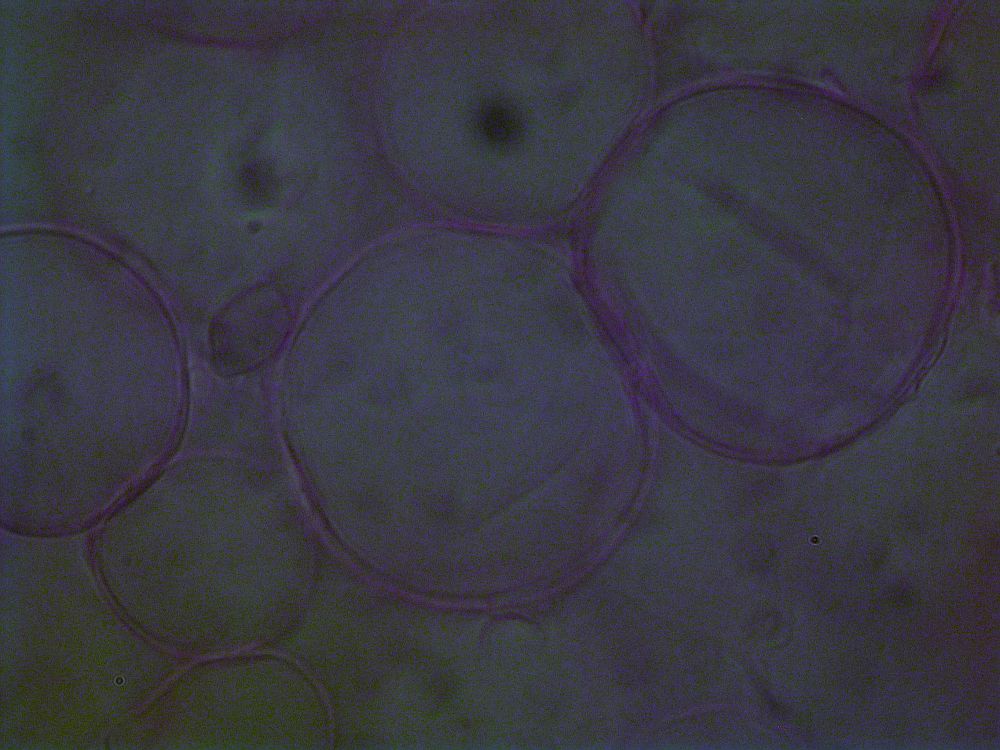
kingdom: Fungi
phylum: Basidiomycota
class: Agaricomycetes
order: Agaricales
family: Psathyrellaceae
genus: Coprinopsis
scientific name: Coprinopsis nivea
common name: snehvid blækhat
